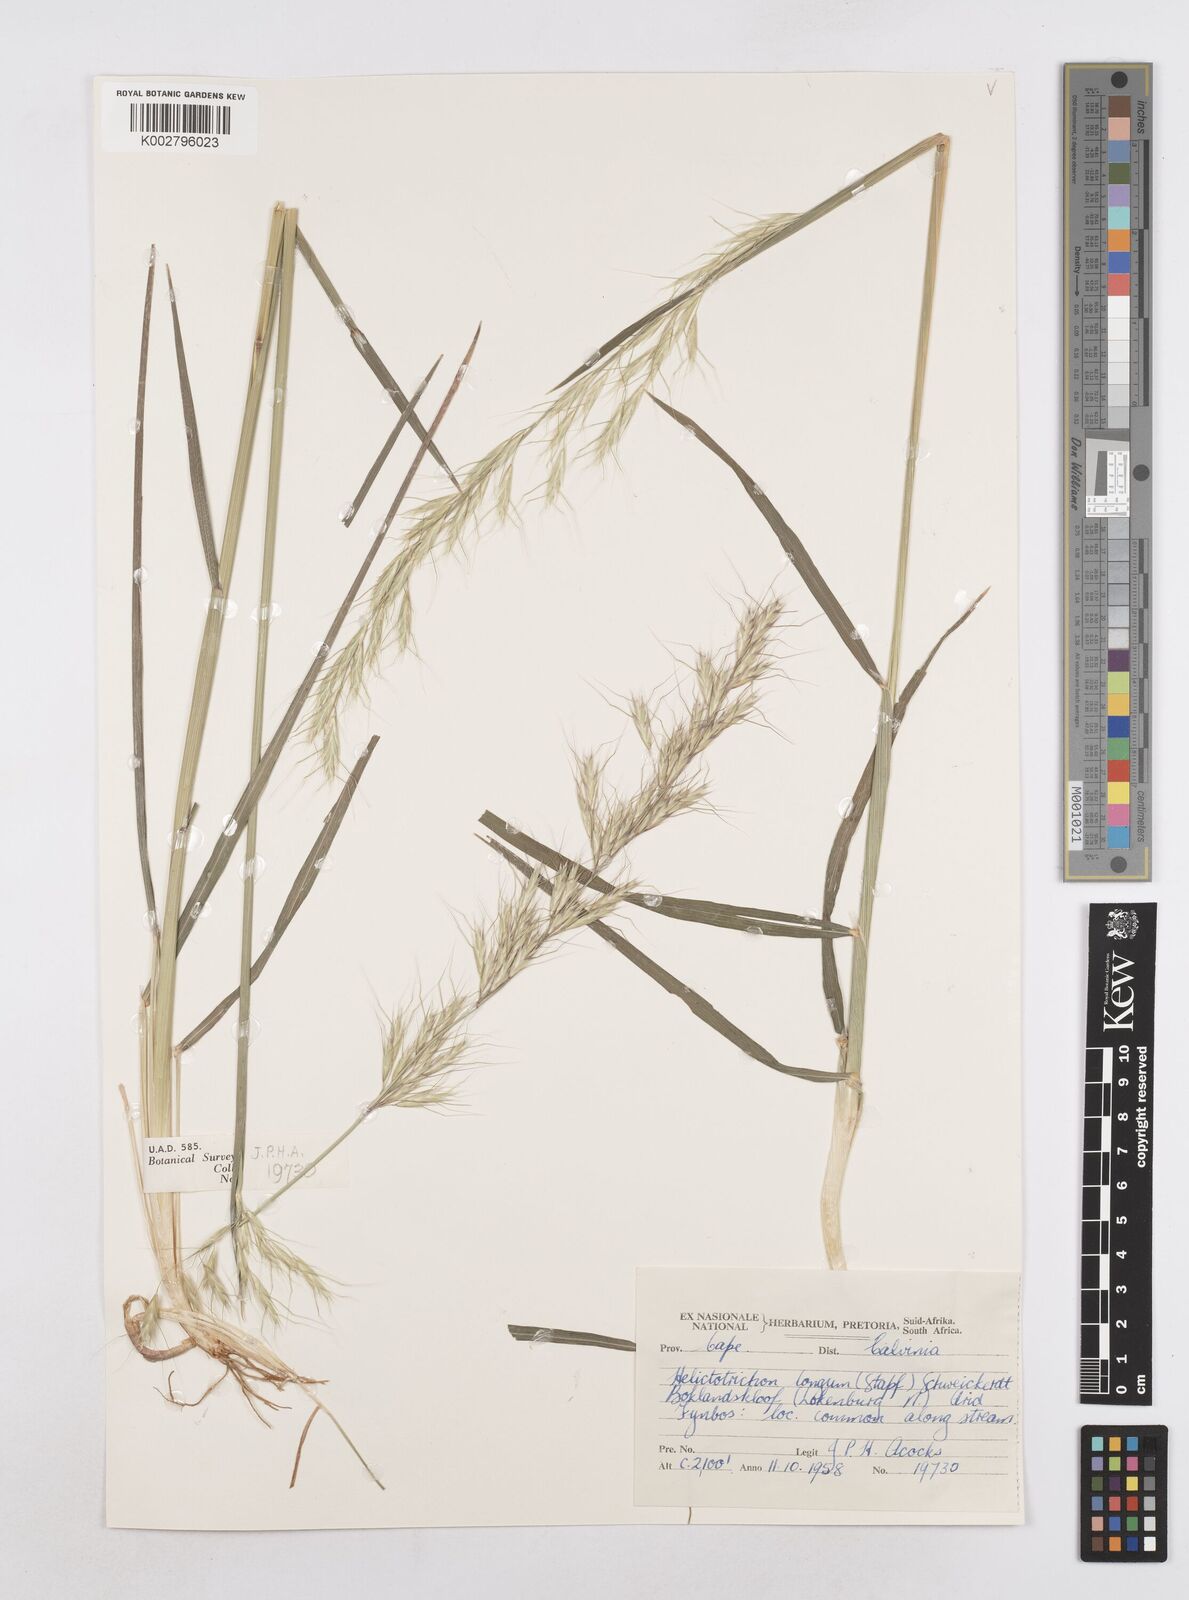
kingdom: Plantae
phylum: Tracheophyta
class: Liliopsida
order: Poales
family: Poaceae
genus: Trisetopsis
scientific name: Trisetopsis longa
